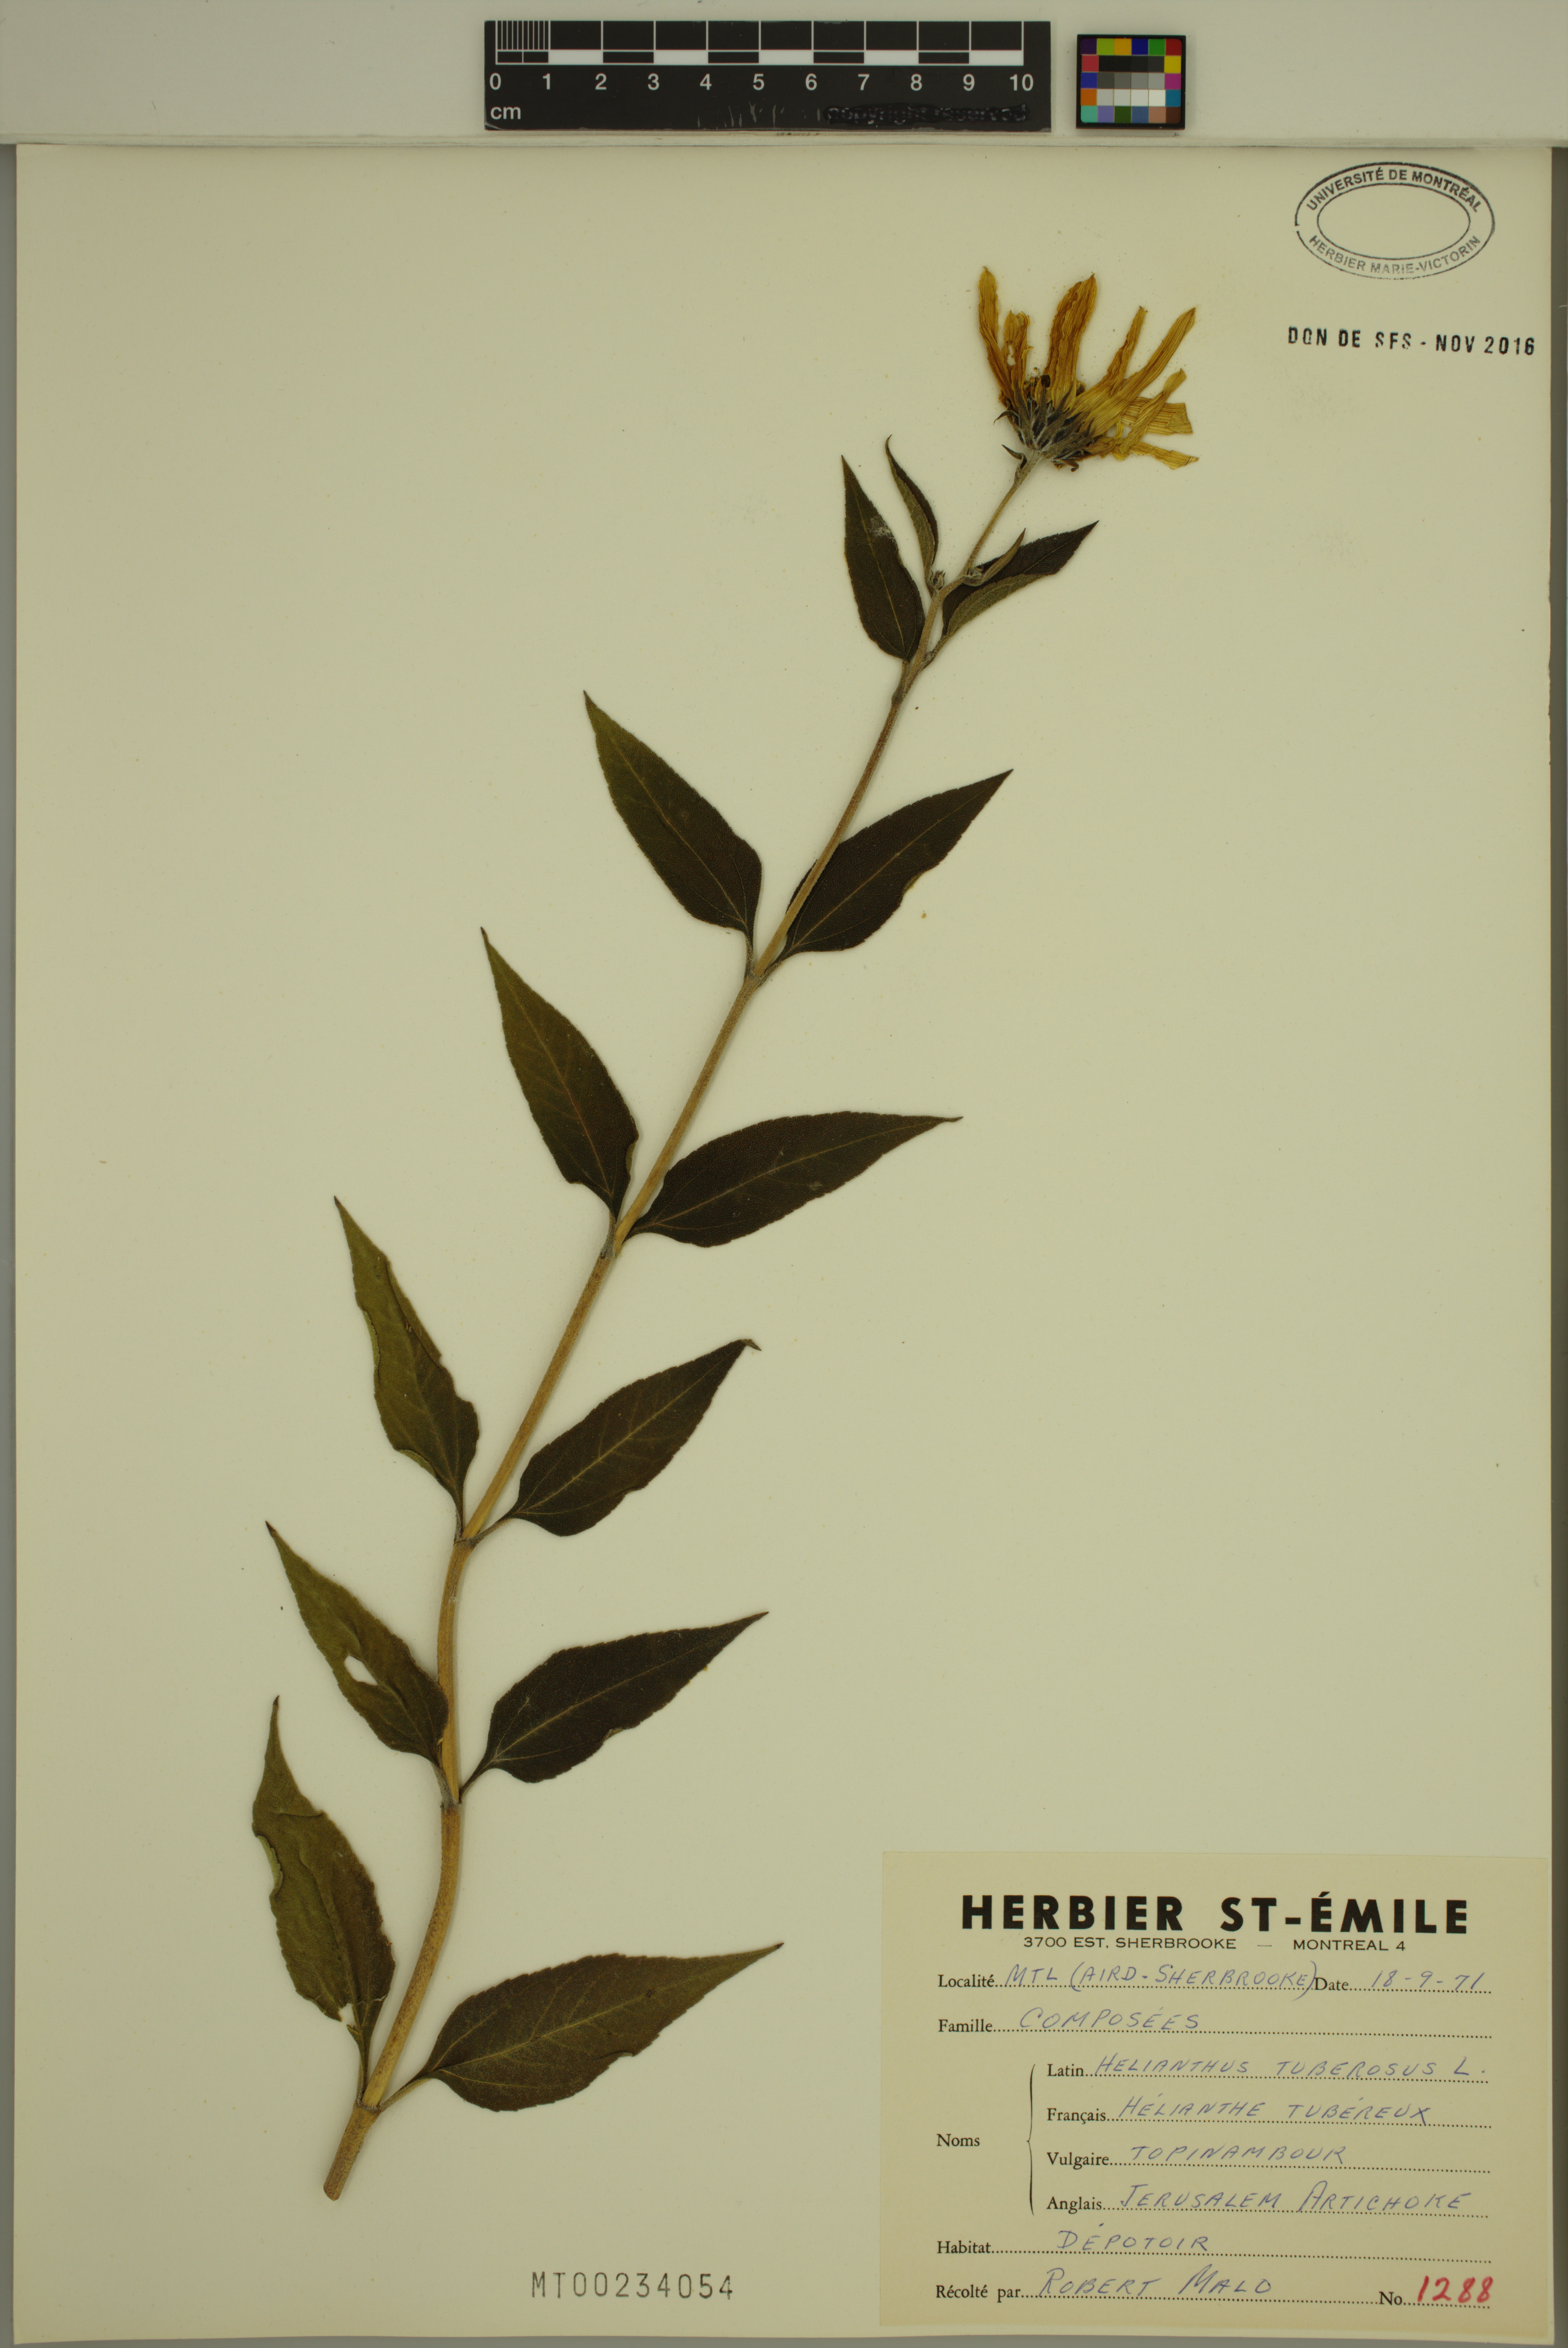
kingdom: Plantae
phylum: Tracheophyta
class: Magnoliopsida
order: Asterales
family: Asteraceae
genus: Helianthus
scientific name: Helianthus tuberosus
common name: Jerusalem artichoke
